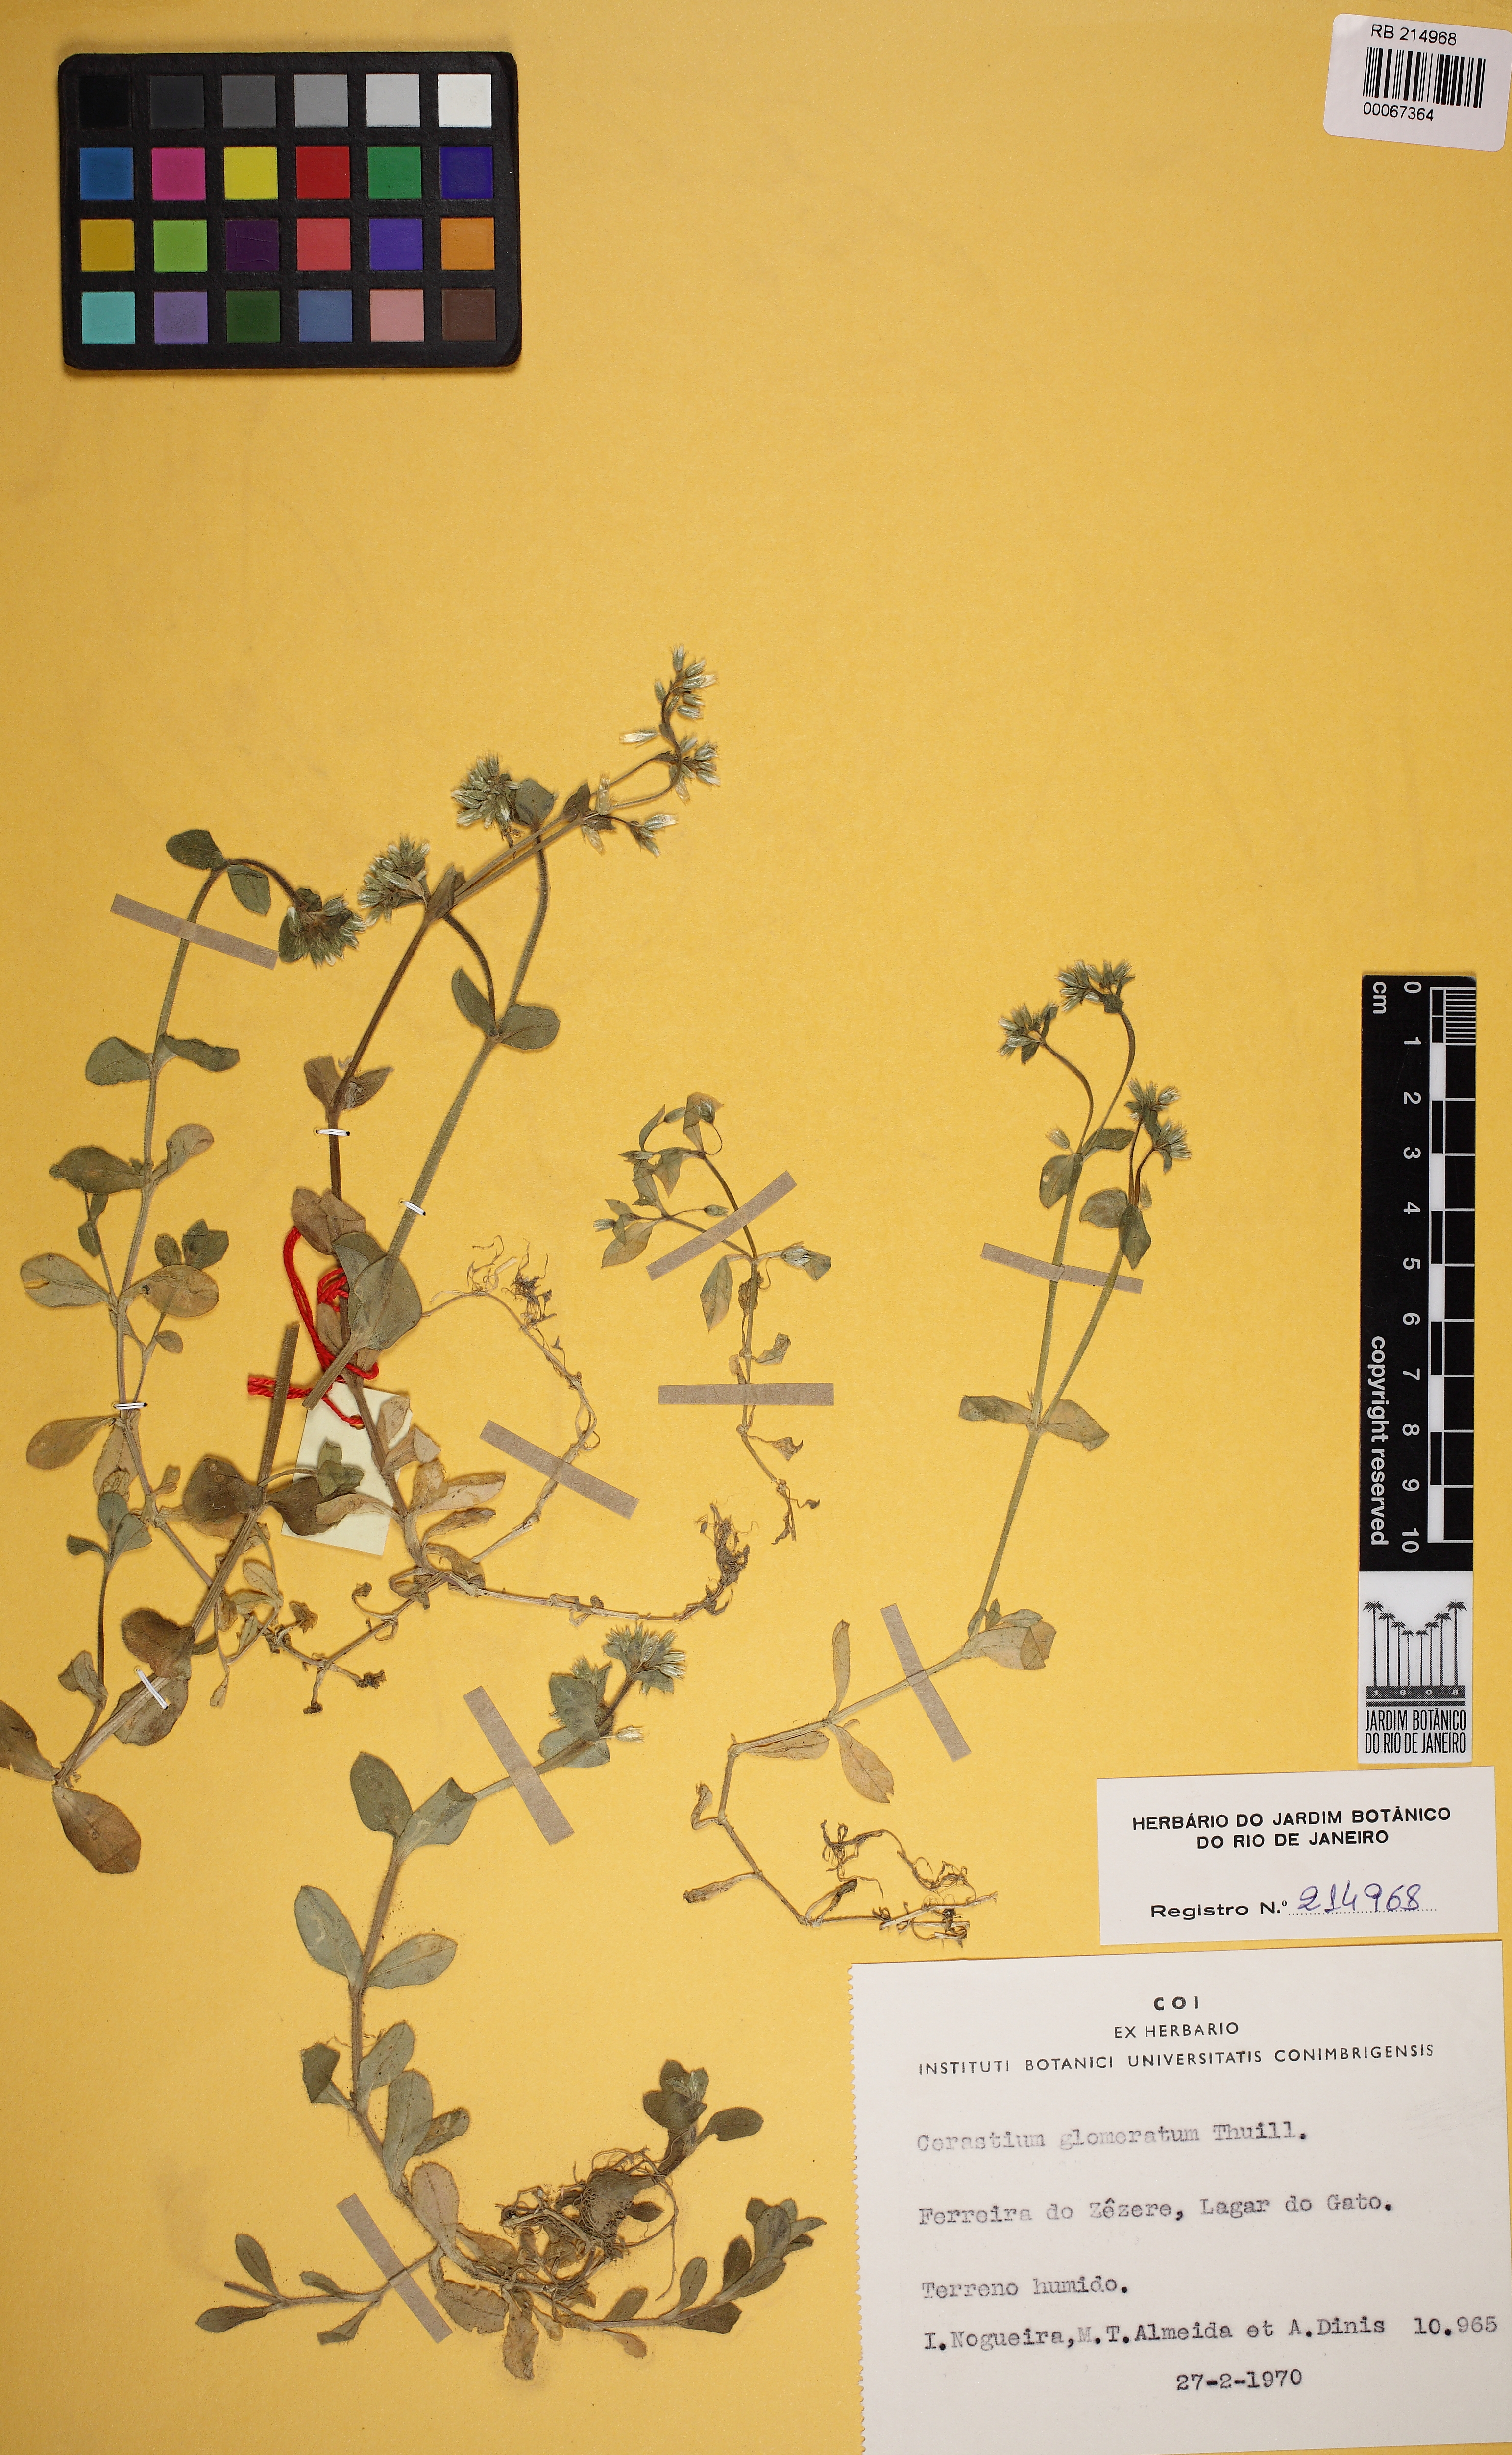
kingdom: Plantae
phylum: Tracheophyta
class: Magnoliopsida
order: Caryophyllales
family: Caryophyllaceae
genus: Cerastium
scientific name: Cerastium glomeratum
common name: Sticky chickweed
